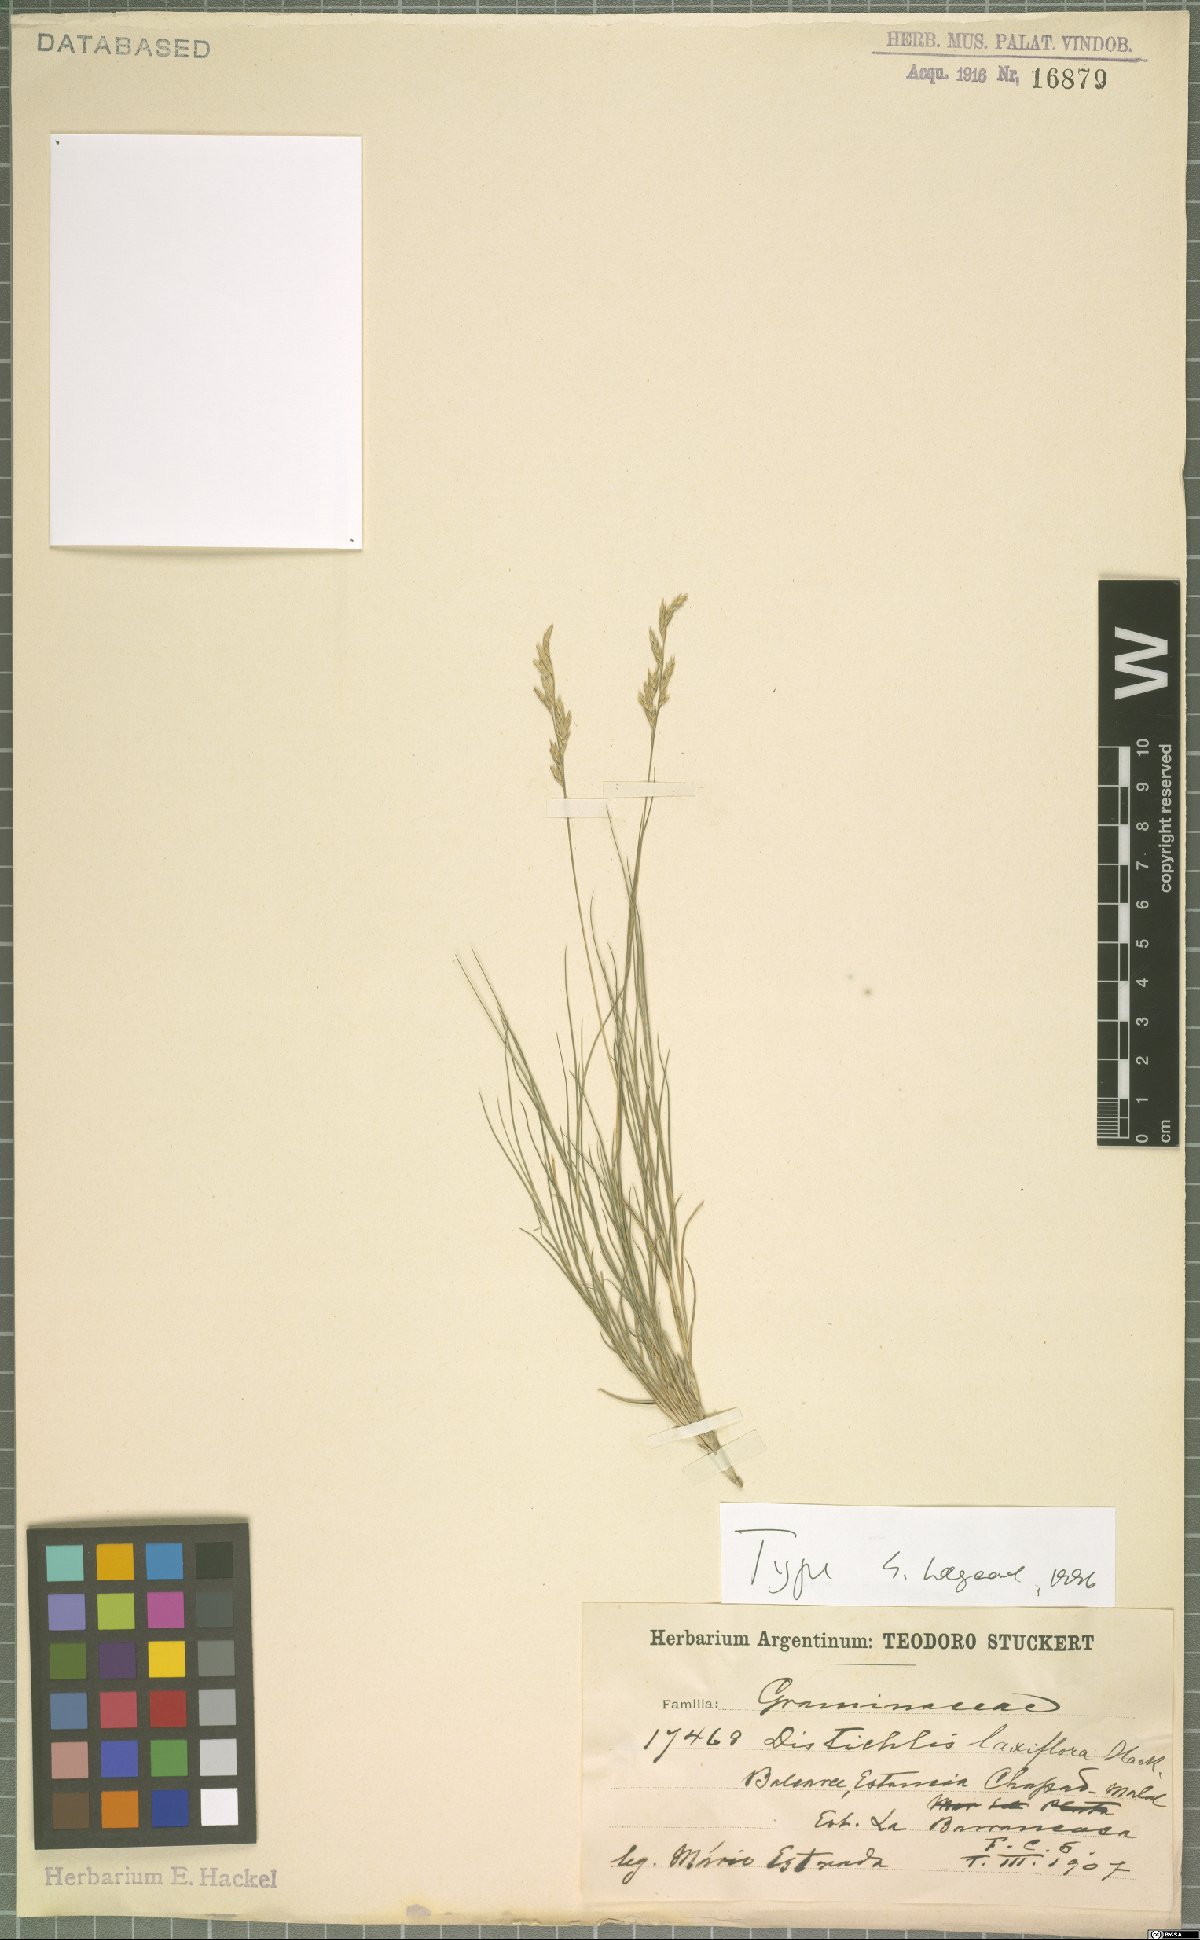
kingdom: Plantae
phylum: Tracheophyta
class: Liliopsida
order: Poales
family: Poaceae
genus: Distichlis
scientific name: Distichlis laxiflora
